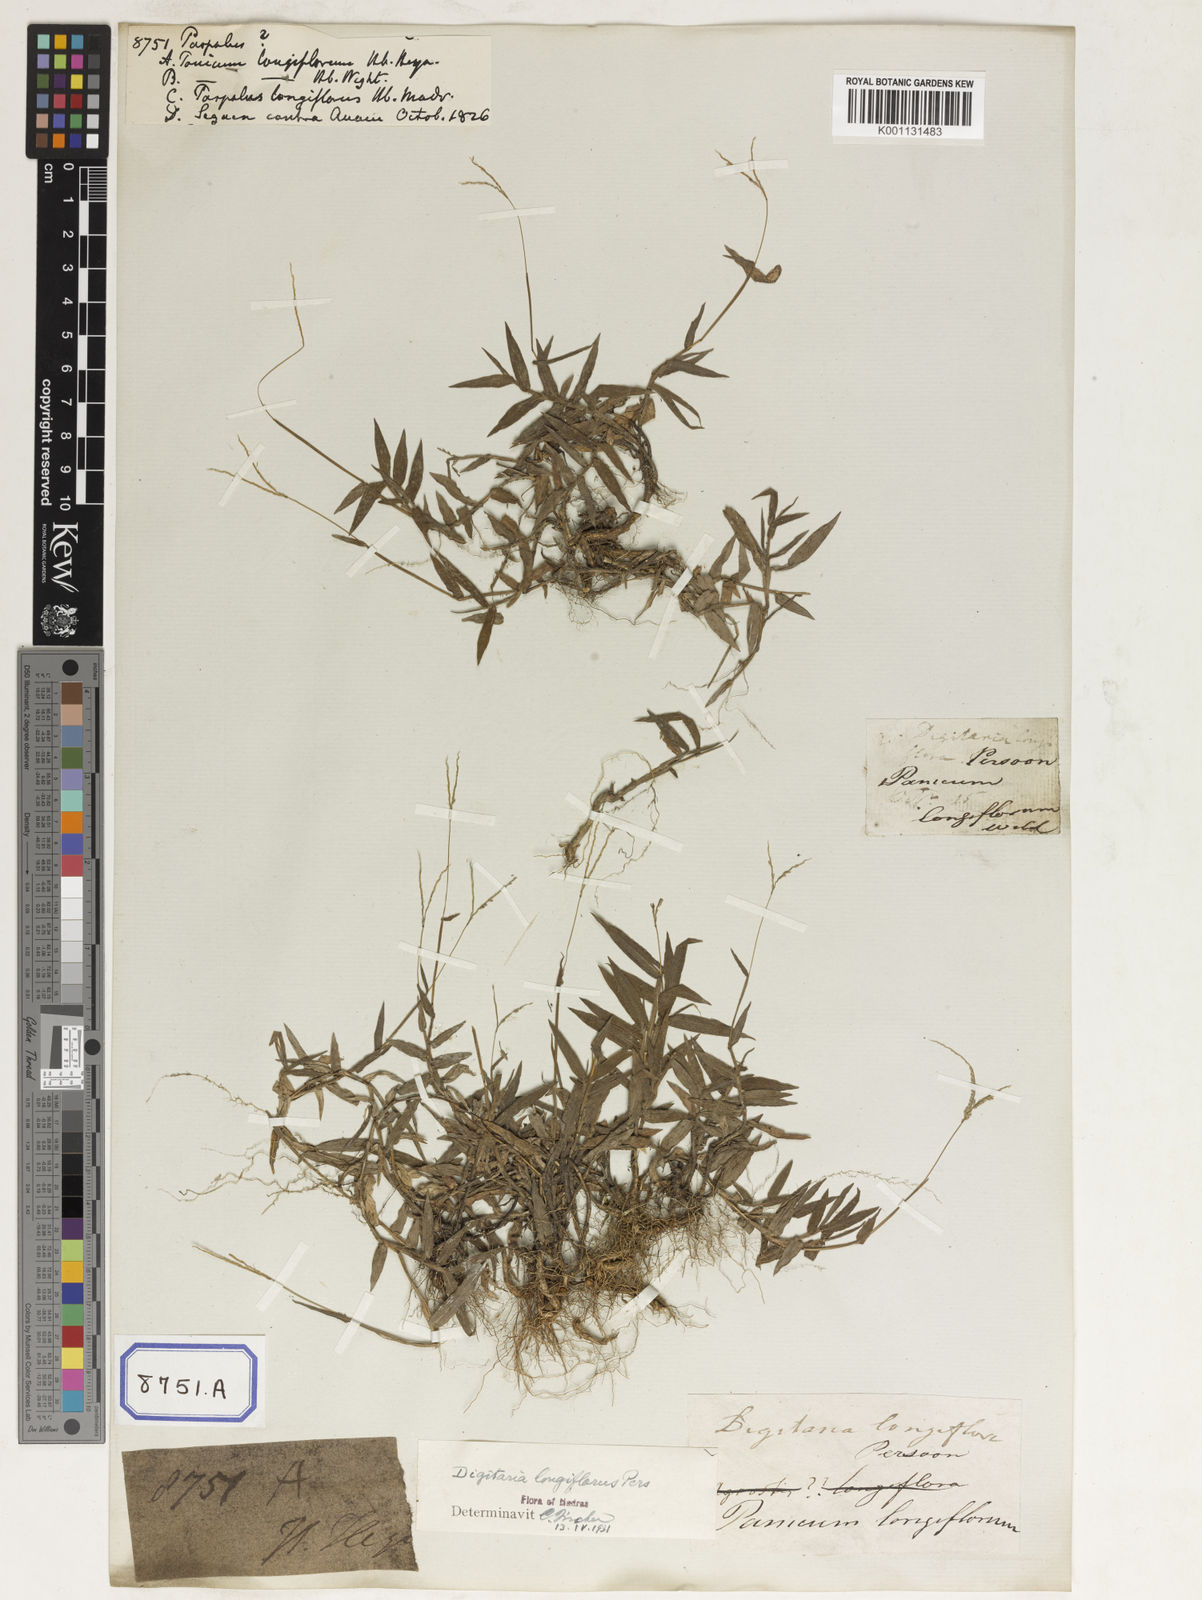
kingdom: Plantae
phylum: Tracheophyta
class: Liliopsida
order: Poales
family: Poaceae
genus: Paspalum
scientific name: Paspalum
